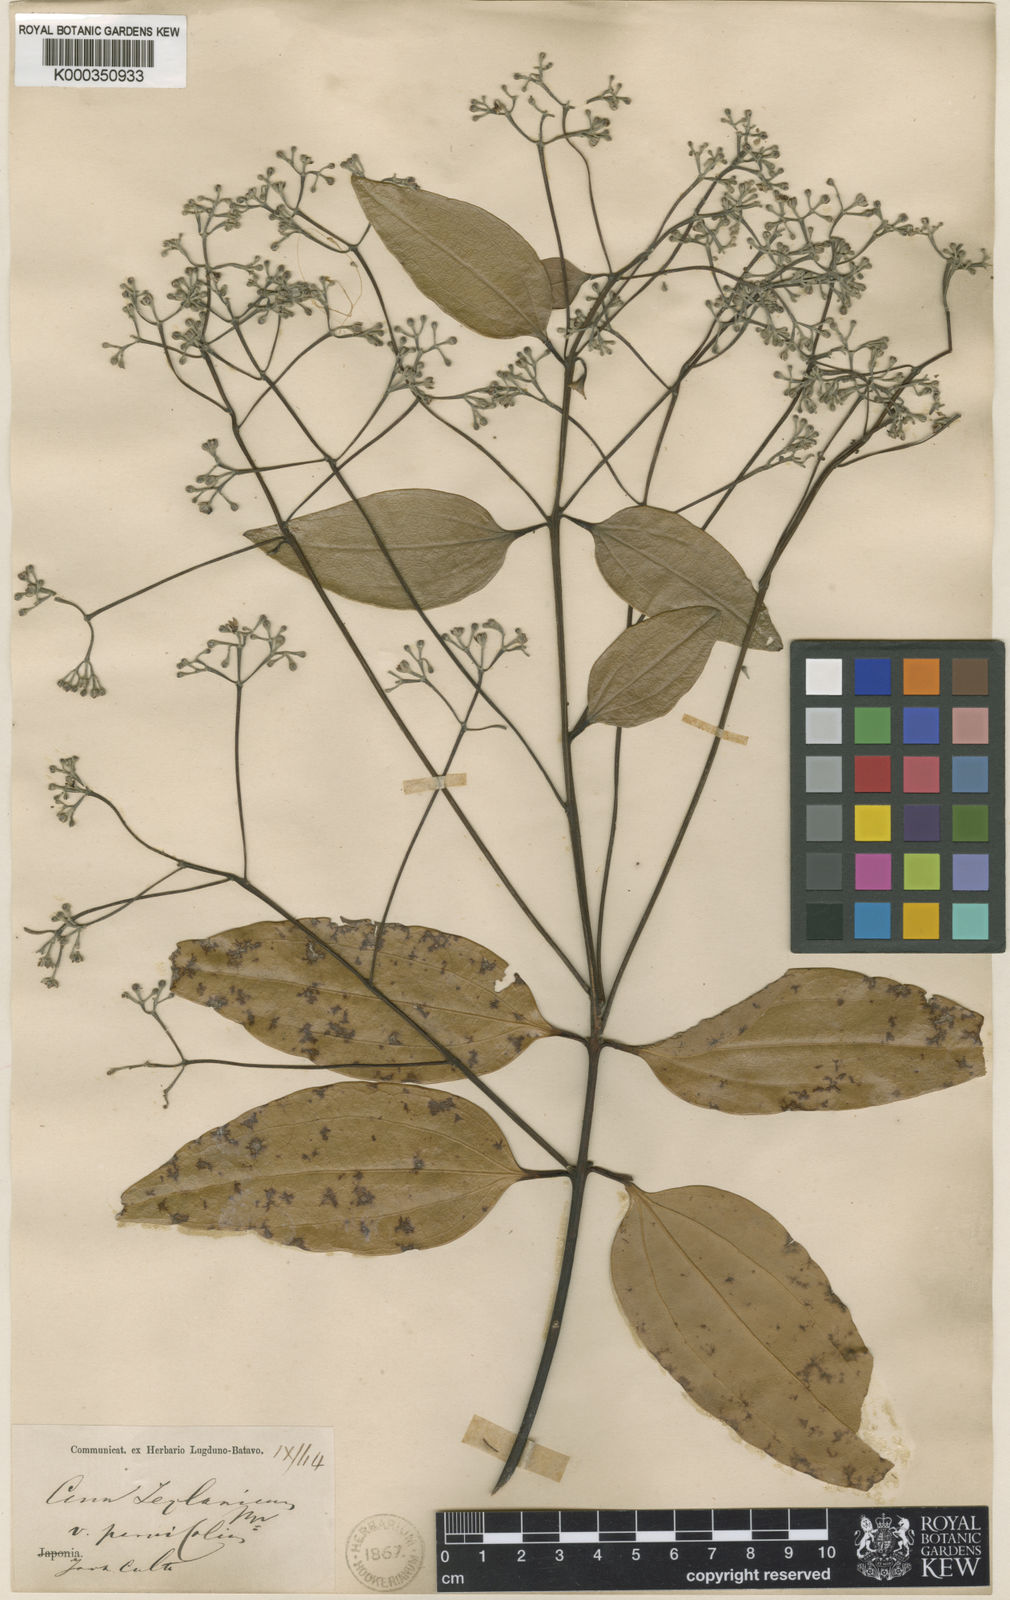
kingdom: Plantae
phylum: Tracheophyta
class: Magnoliopsida
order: Laurales
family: Lauraceae
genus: Cinnamomum
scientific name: Cinnamomum verum
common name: Cinnamon
